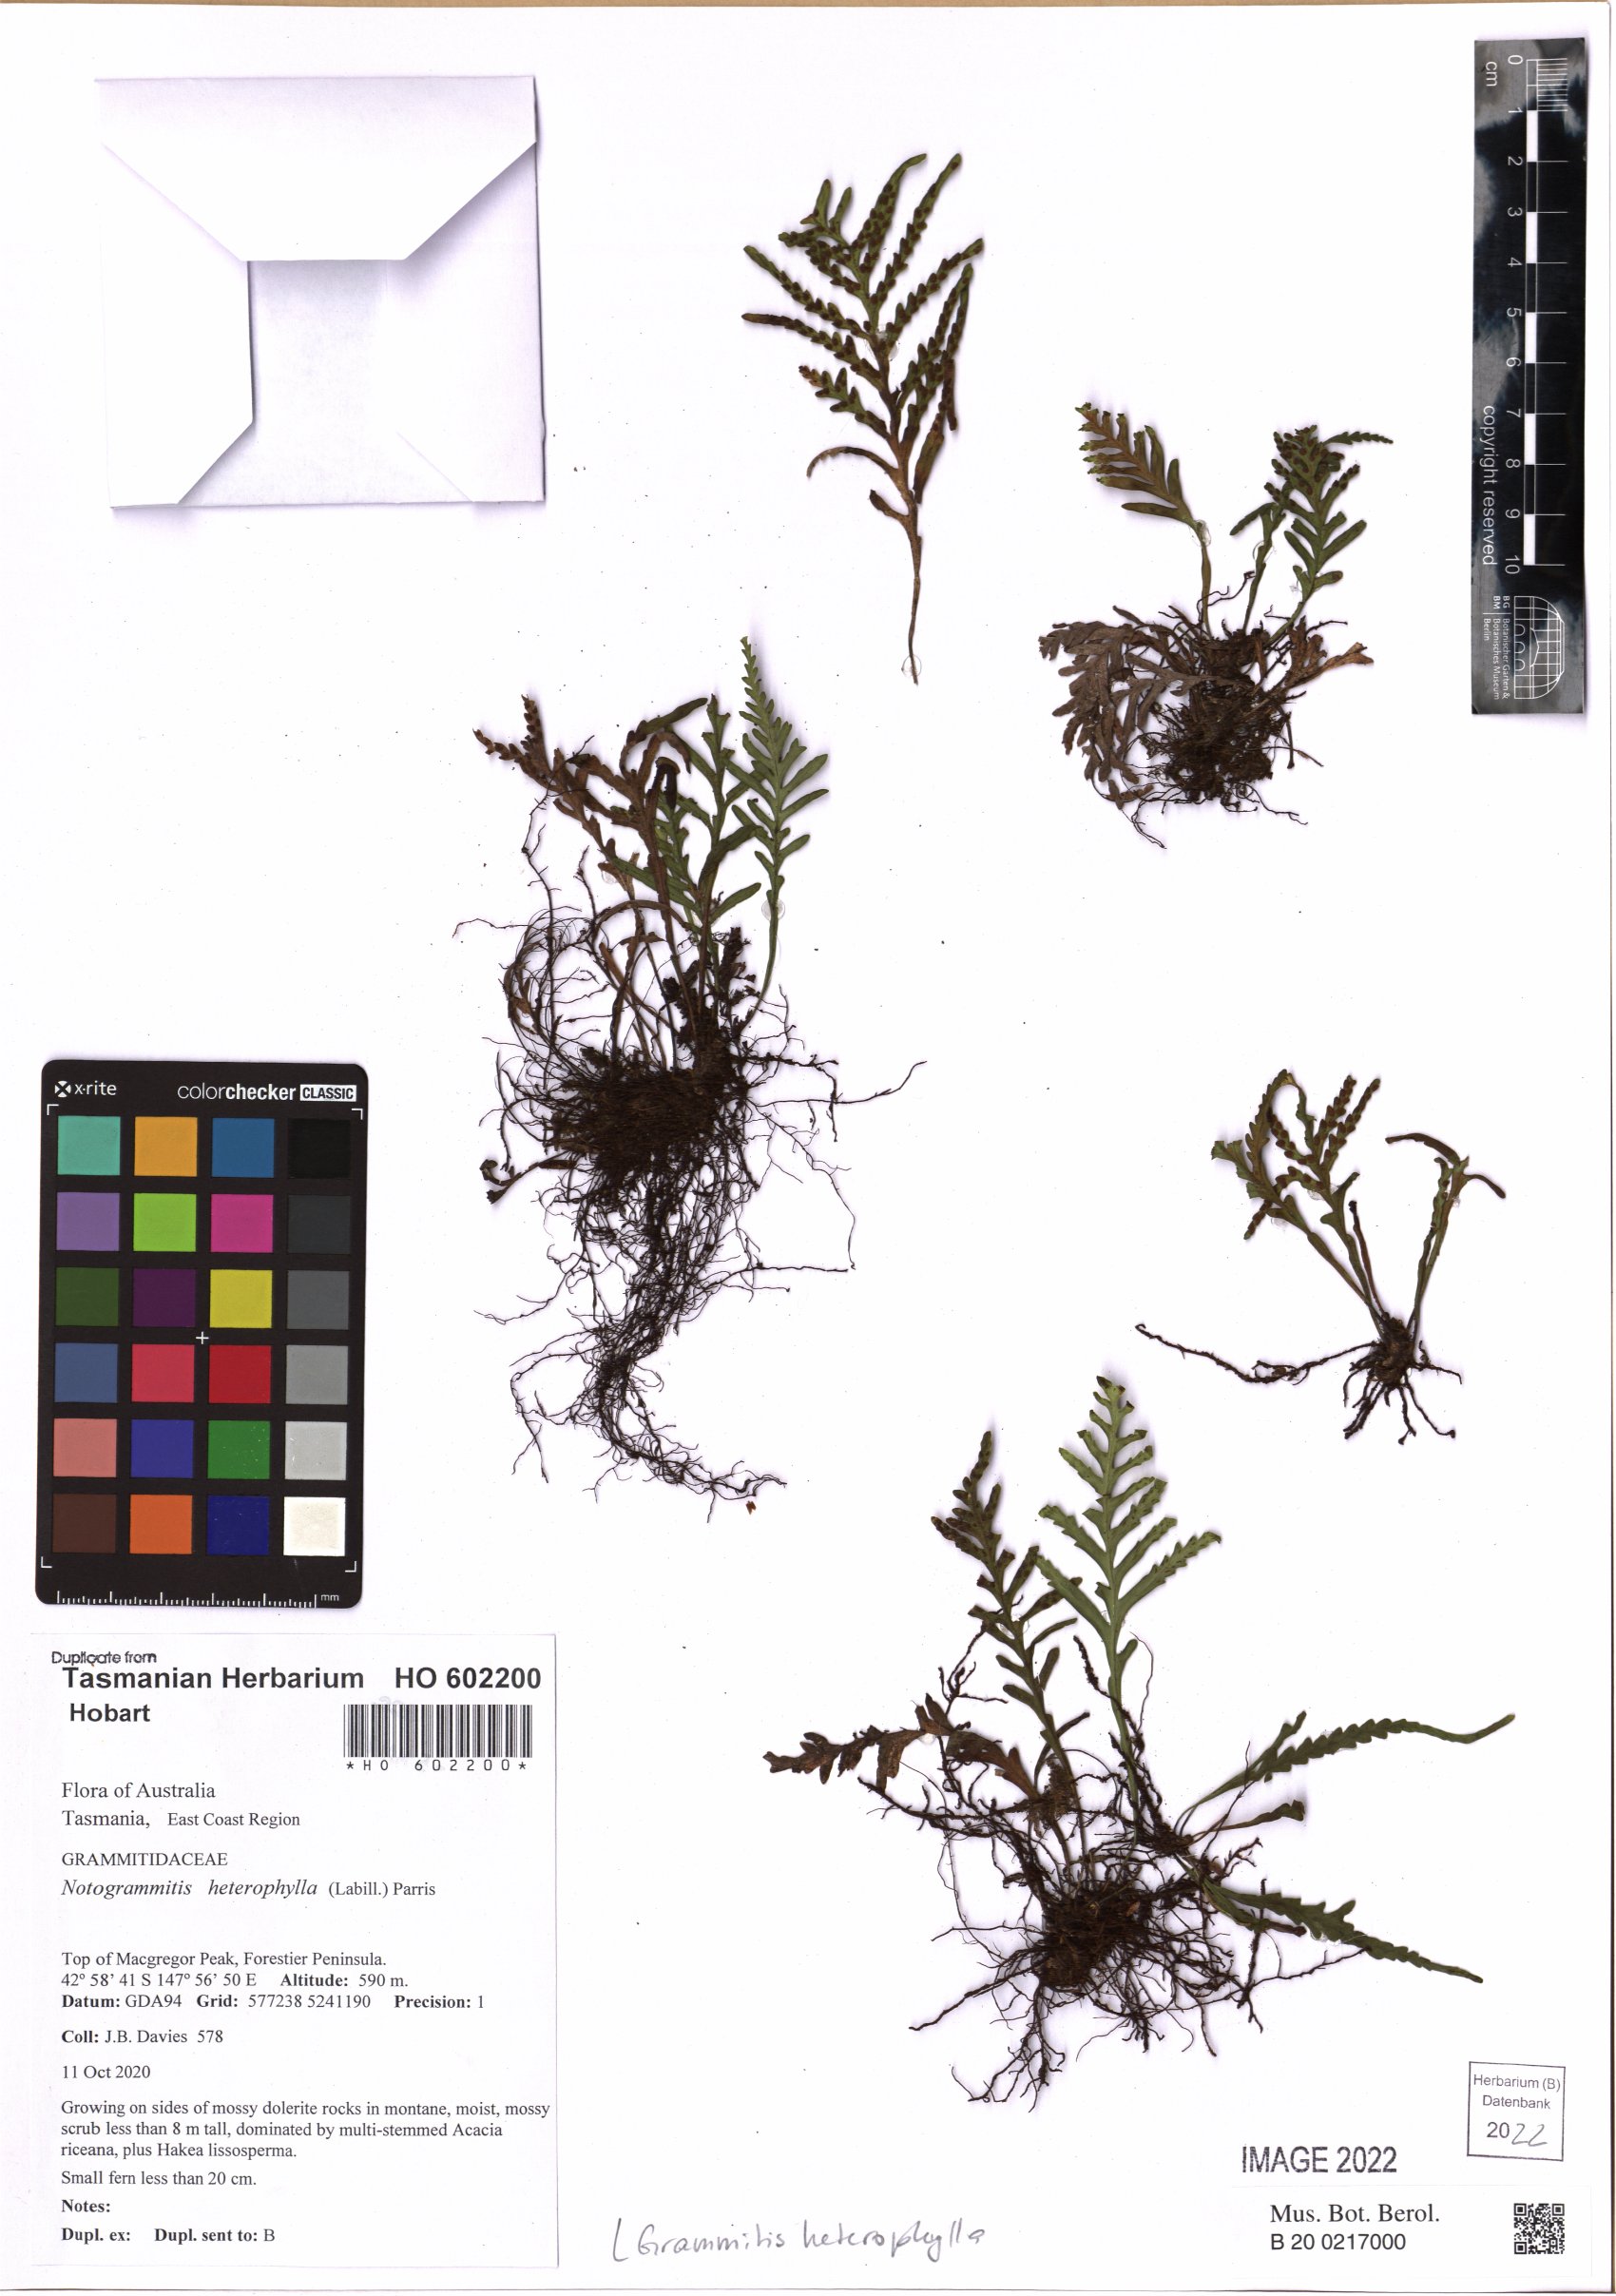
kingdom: Plantae
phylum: Tracheophyta
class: Polypodiopsida
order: Polypodiales
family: Polypodiaceae
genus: Notogrammitis
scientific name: Notogrammitis heterophylla
